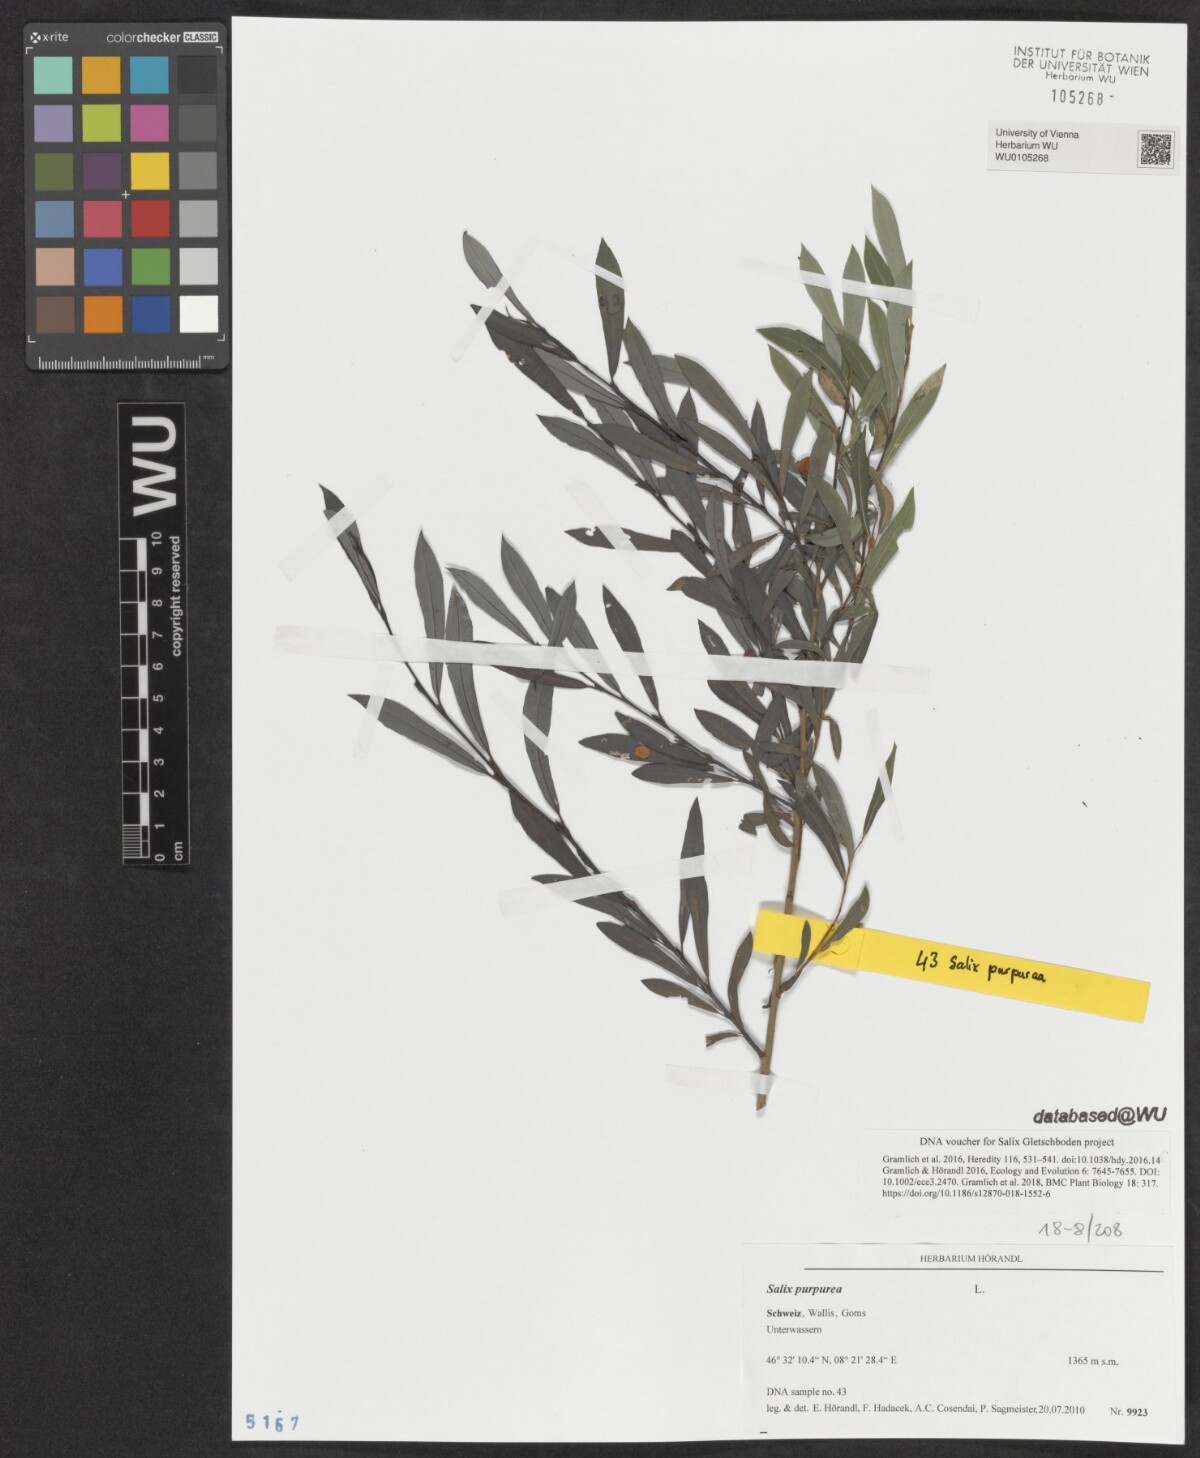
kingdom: Plantae
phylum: Tracheophyta
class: Magnoliopsida
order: Malpighiales
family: Salicaceae
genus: Salix
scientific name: Salix purpurea
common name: Purple willow
